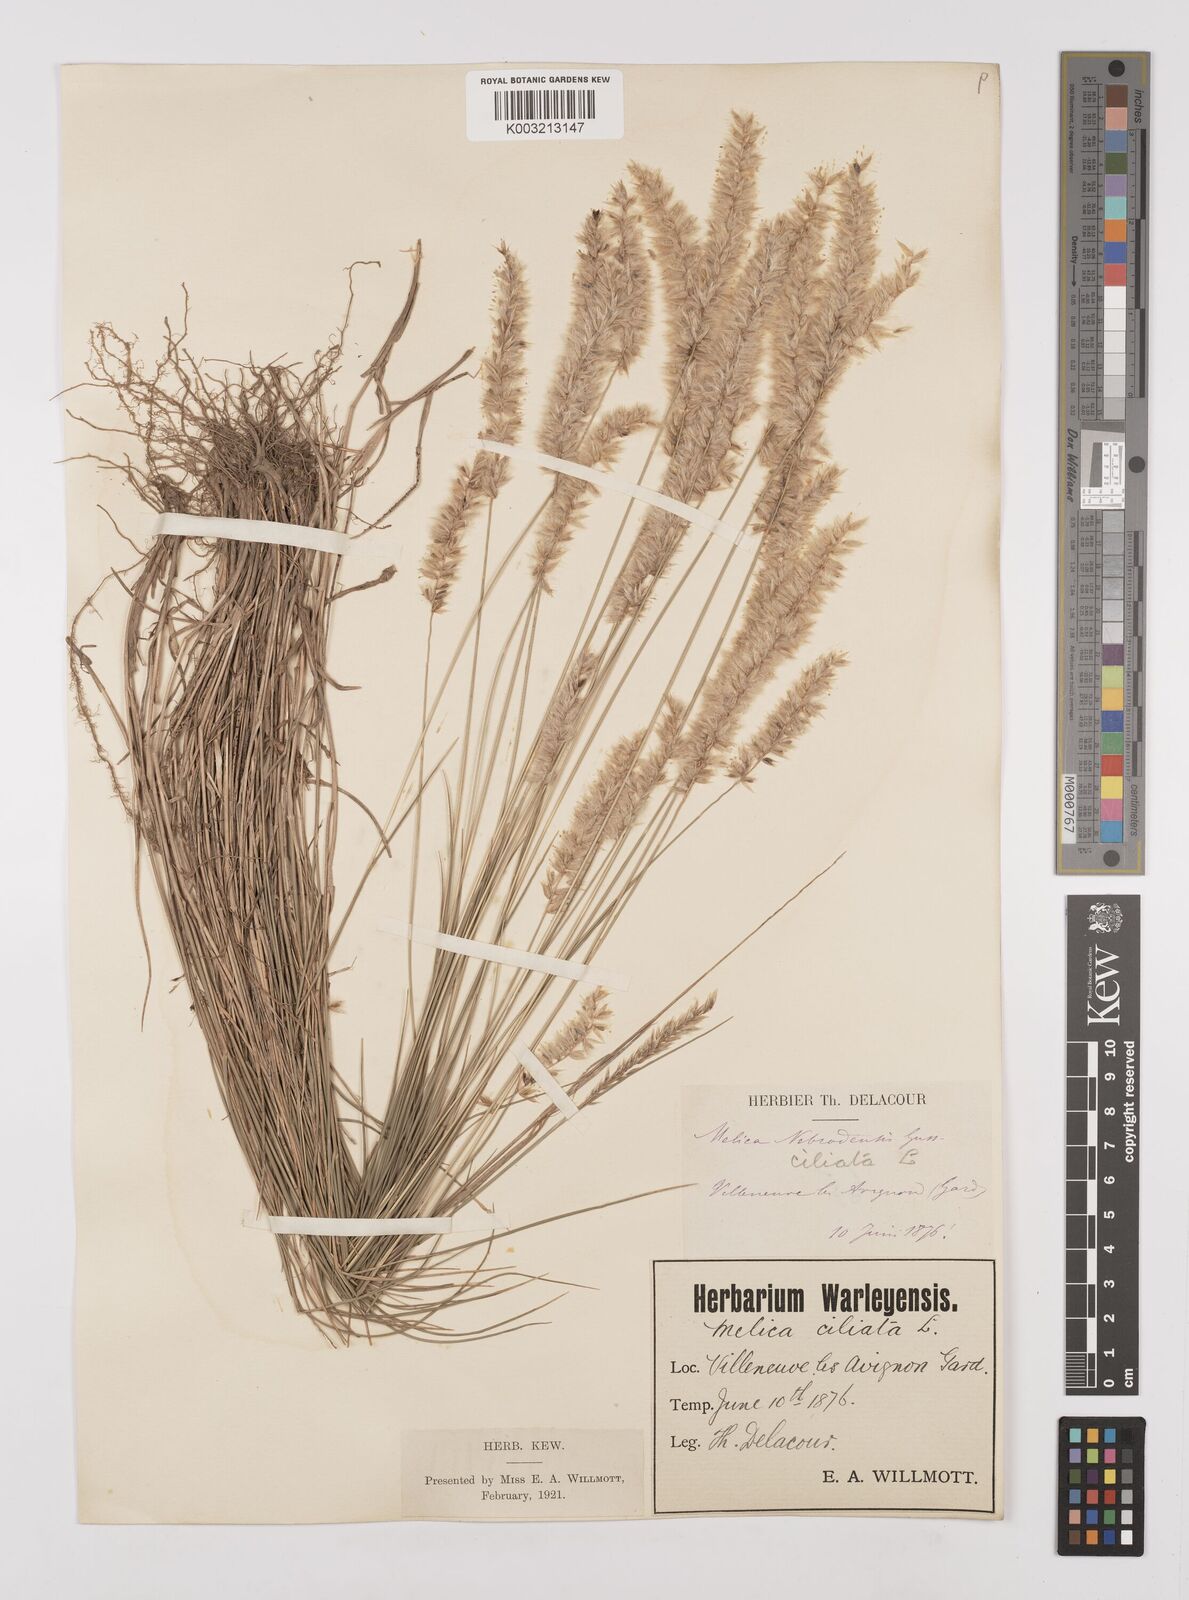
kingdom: Plantae
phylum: Tracheophyta
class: Liliopsida
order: Poales
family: Poaceae
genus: Melica
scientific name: Melica ciliata
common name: Hairy melicgrass
